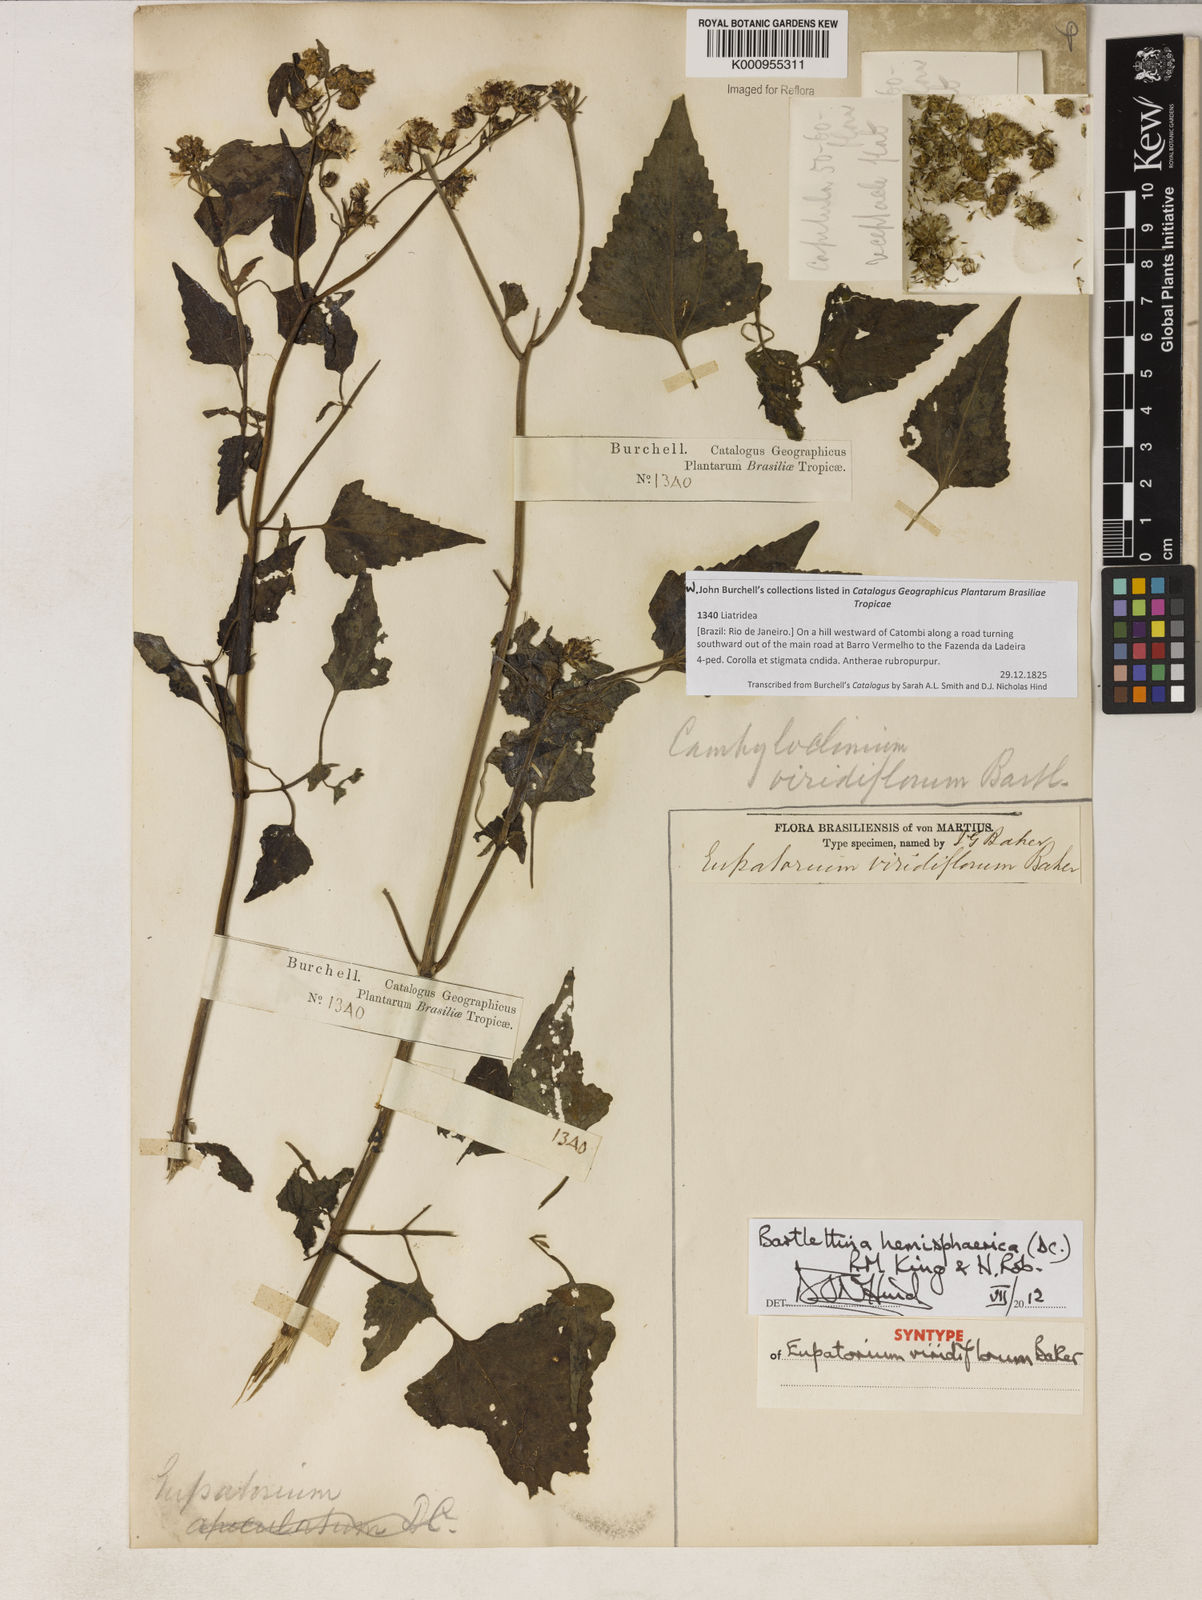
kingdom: Plantae
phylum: Tracheophyta
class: Magnoliopsida
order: Asterales
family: Asteraceae
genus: Bartlettina
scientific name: Bartlettina conspicua
